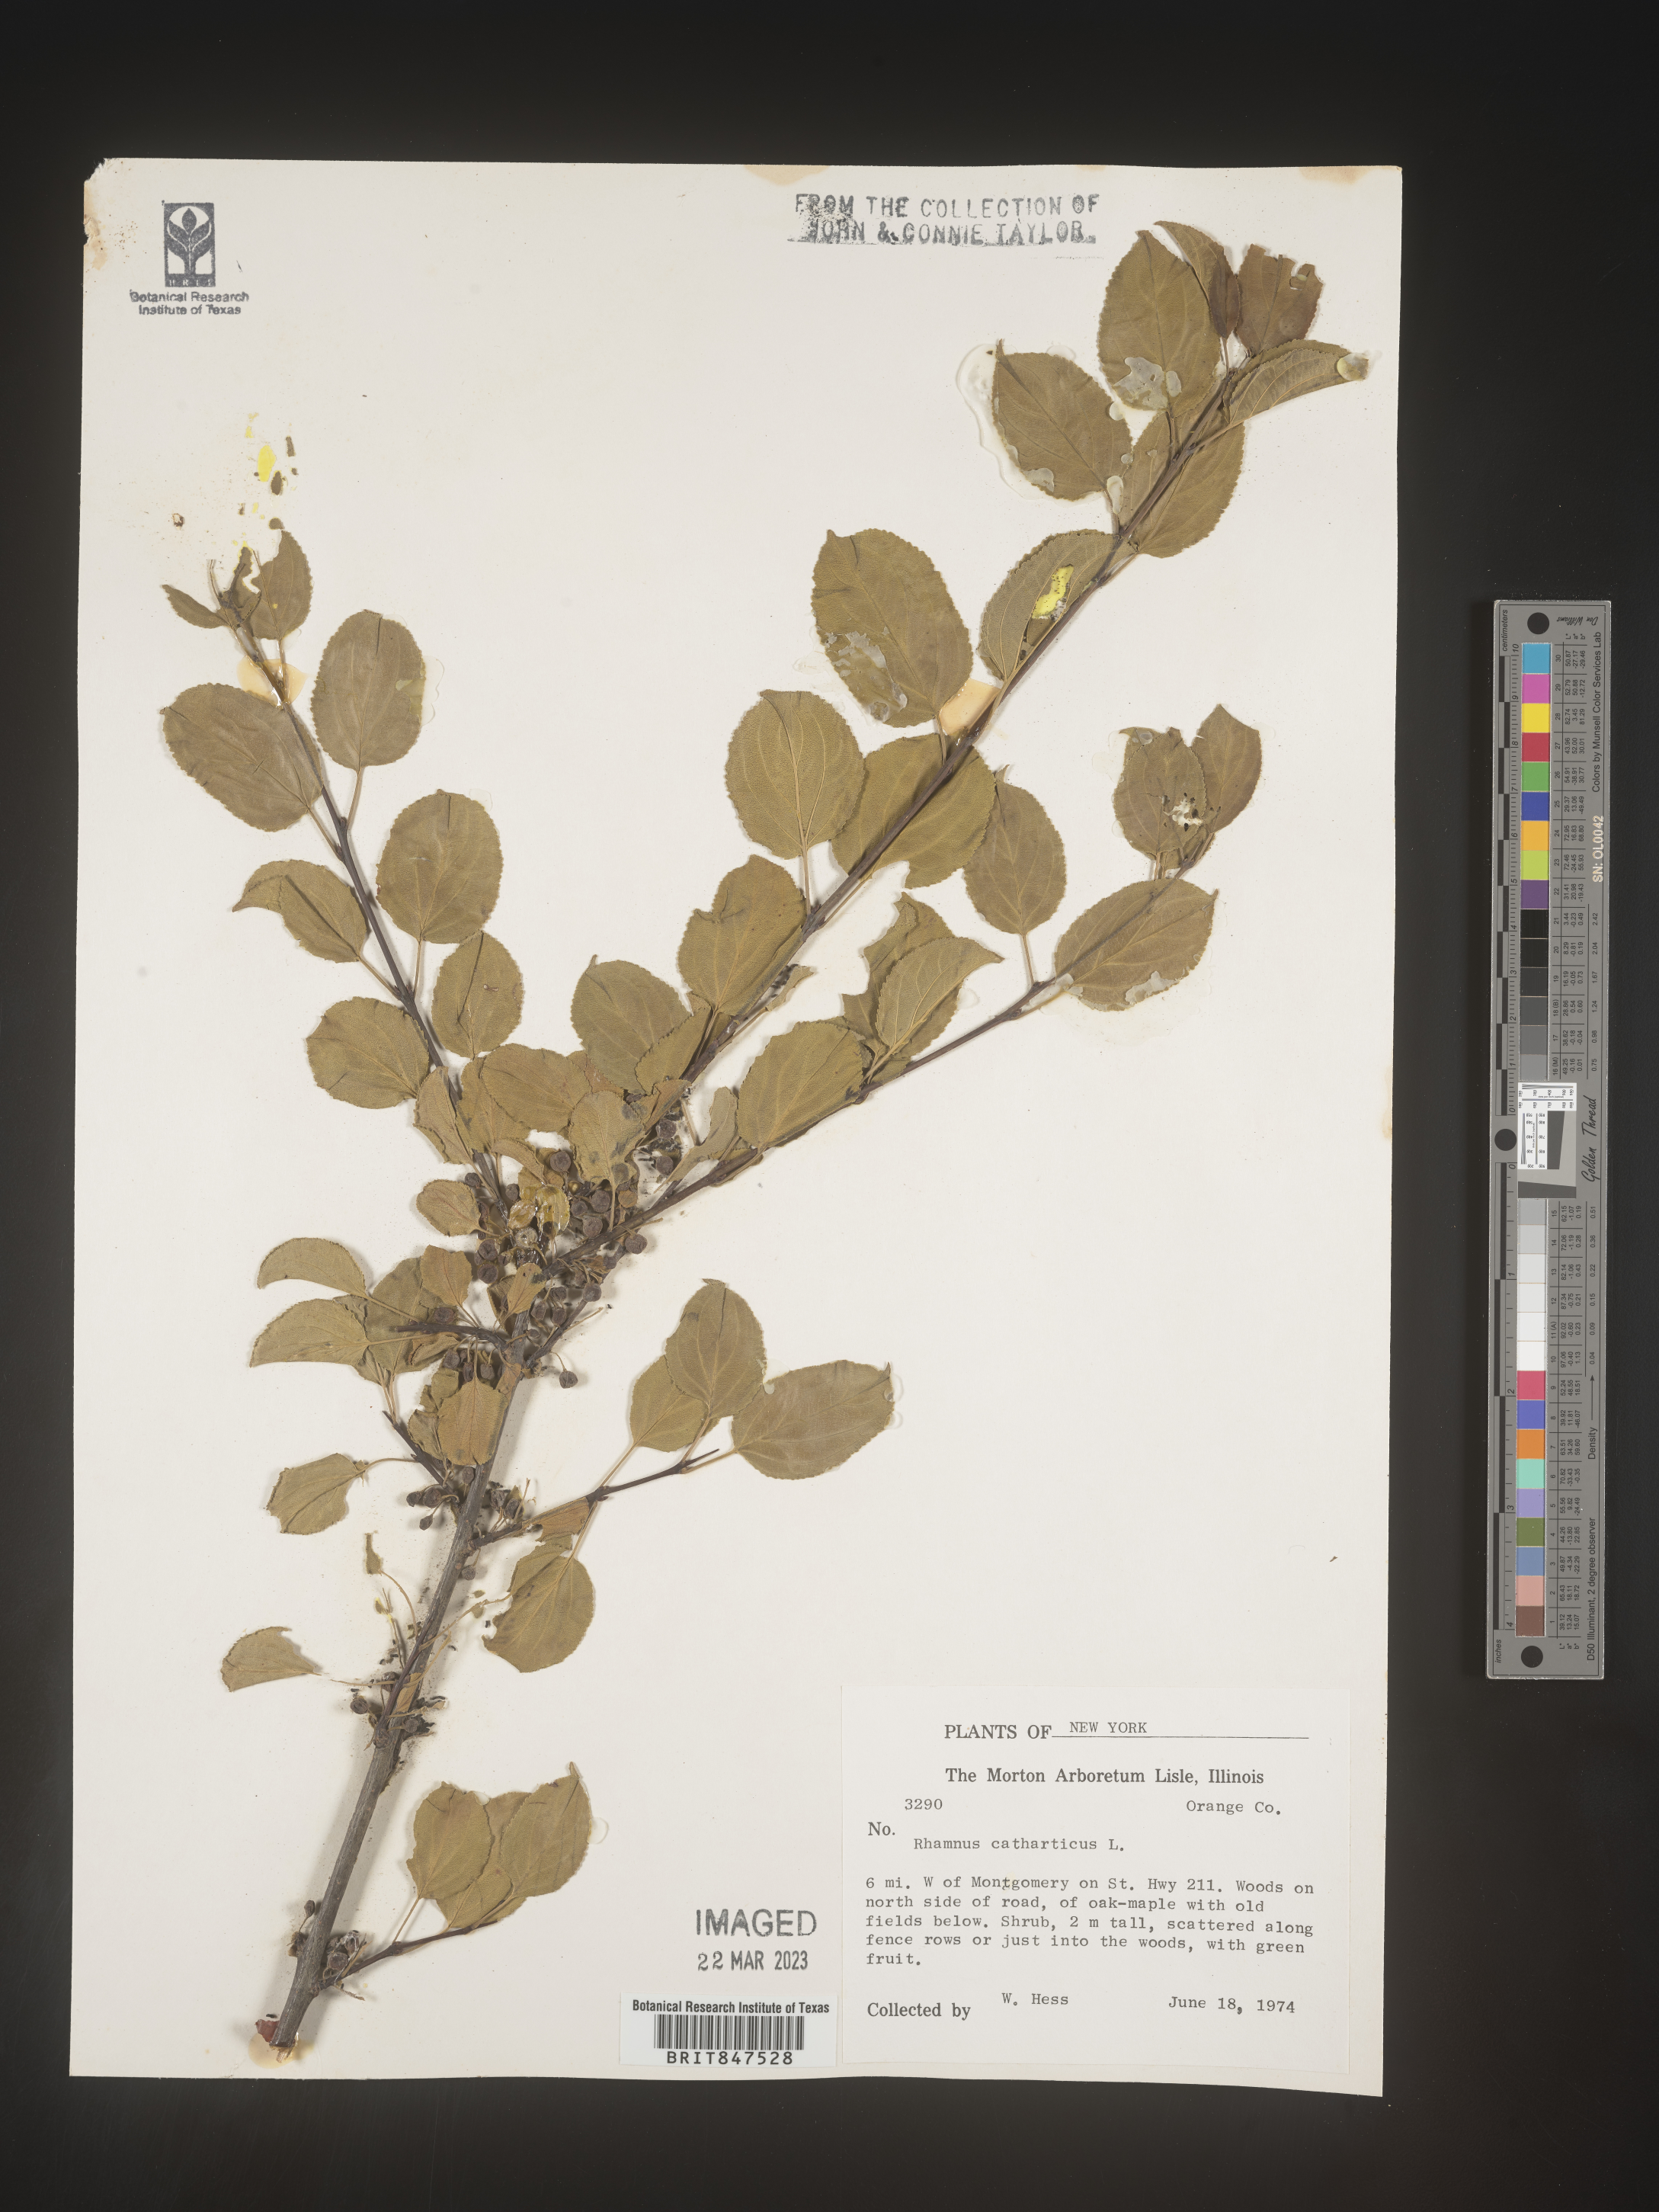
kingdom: Plantae
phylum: Tracheophyta
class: Magnoliopsida
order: Rosales
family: Rhamnaceae
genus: Rhamnus
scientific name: Rhamnus cathartica
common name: Common buckthorn
